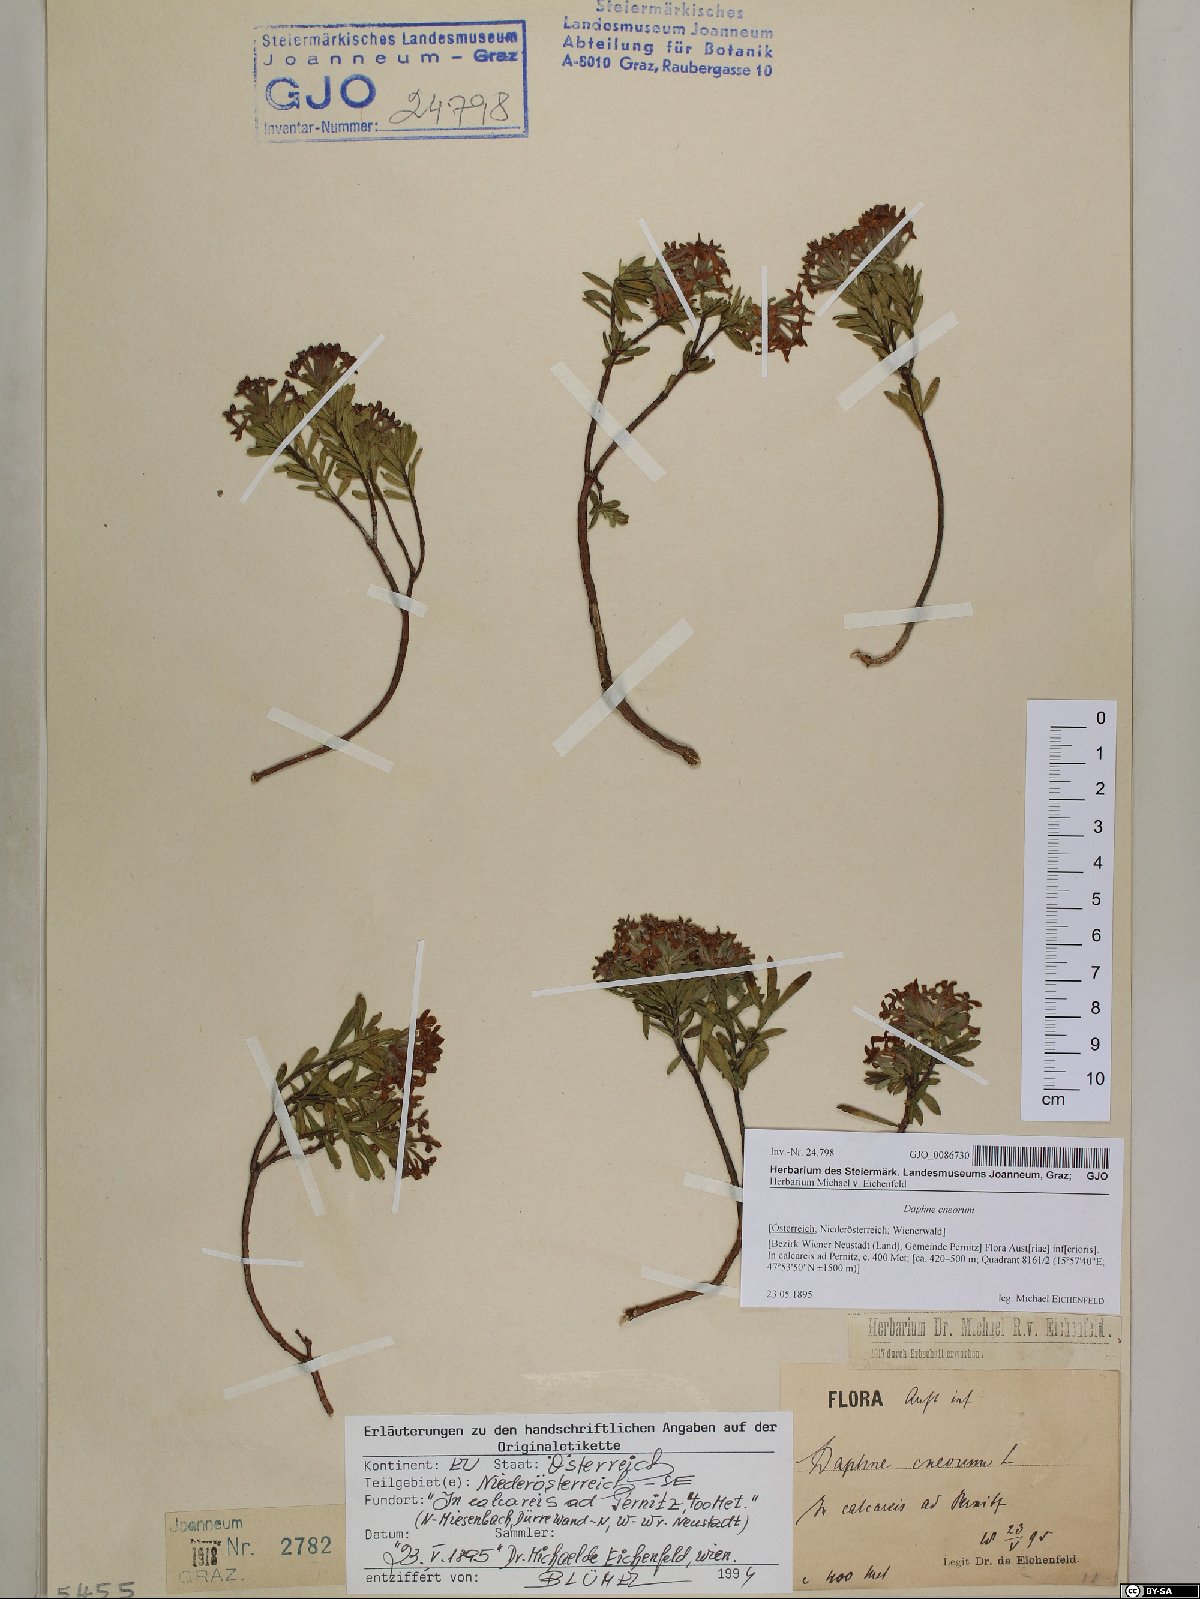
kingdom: Plantae
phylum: Tracheophyta
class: Magnoliopsida
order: Malvales
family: Thymelaeaceae
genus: Daphne
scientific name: Daphne cneorum
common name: Garland-flower
